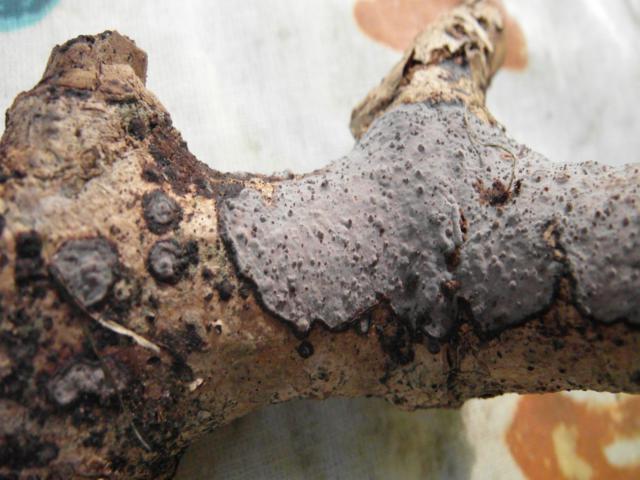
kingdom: Fungi
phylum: Basidiomycota
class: Agaricomycetes
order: Russulales
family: Peniophoraceae
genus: Peniophora
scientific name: Peniophora limitata
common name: mørkrandet voksskind
